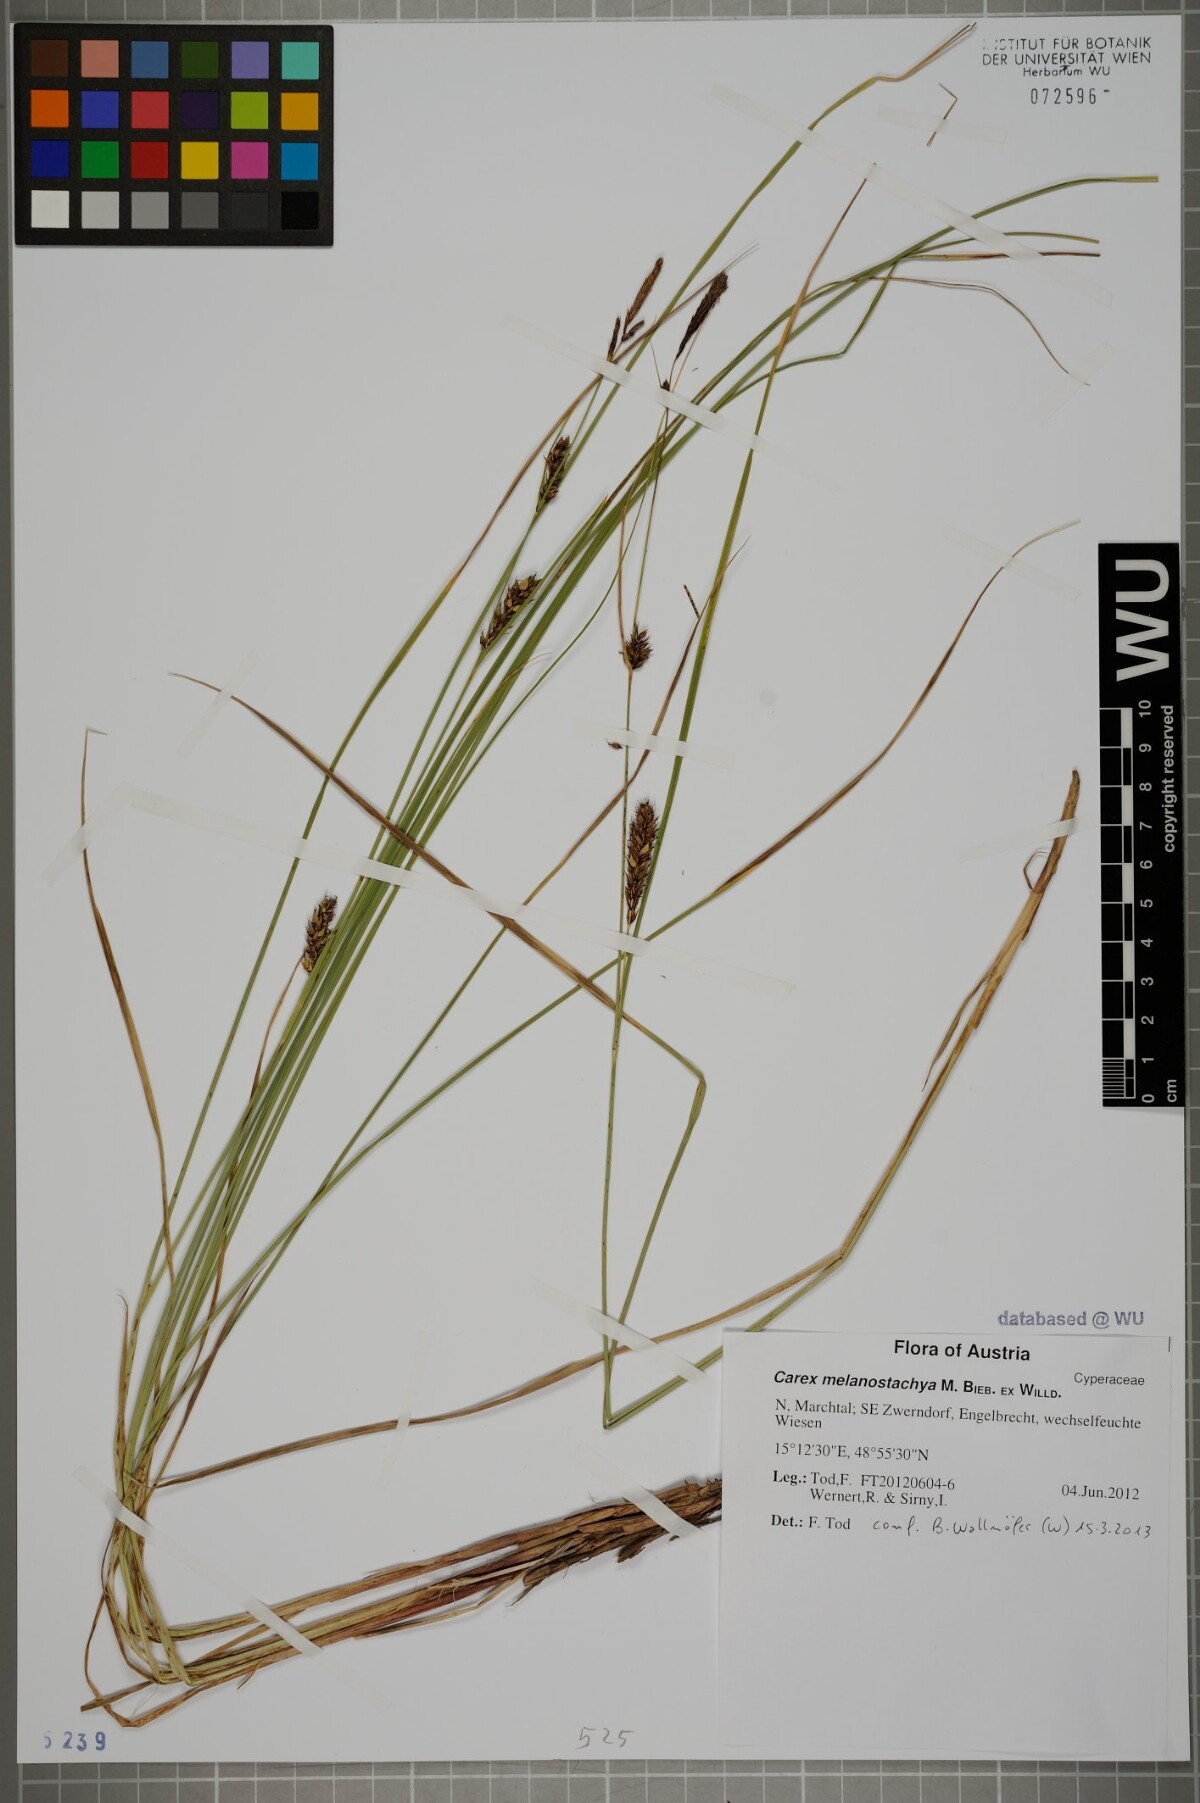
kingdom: Plantae
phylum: Tracheophyta
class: Liliopsida
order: Poales
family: Cyperaceae
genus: Carex
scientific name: Carex melanostachya
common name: Black-spiked sedge
